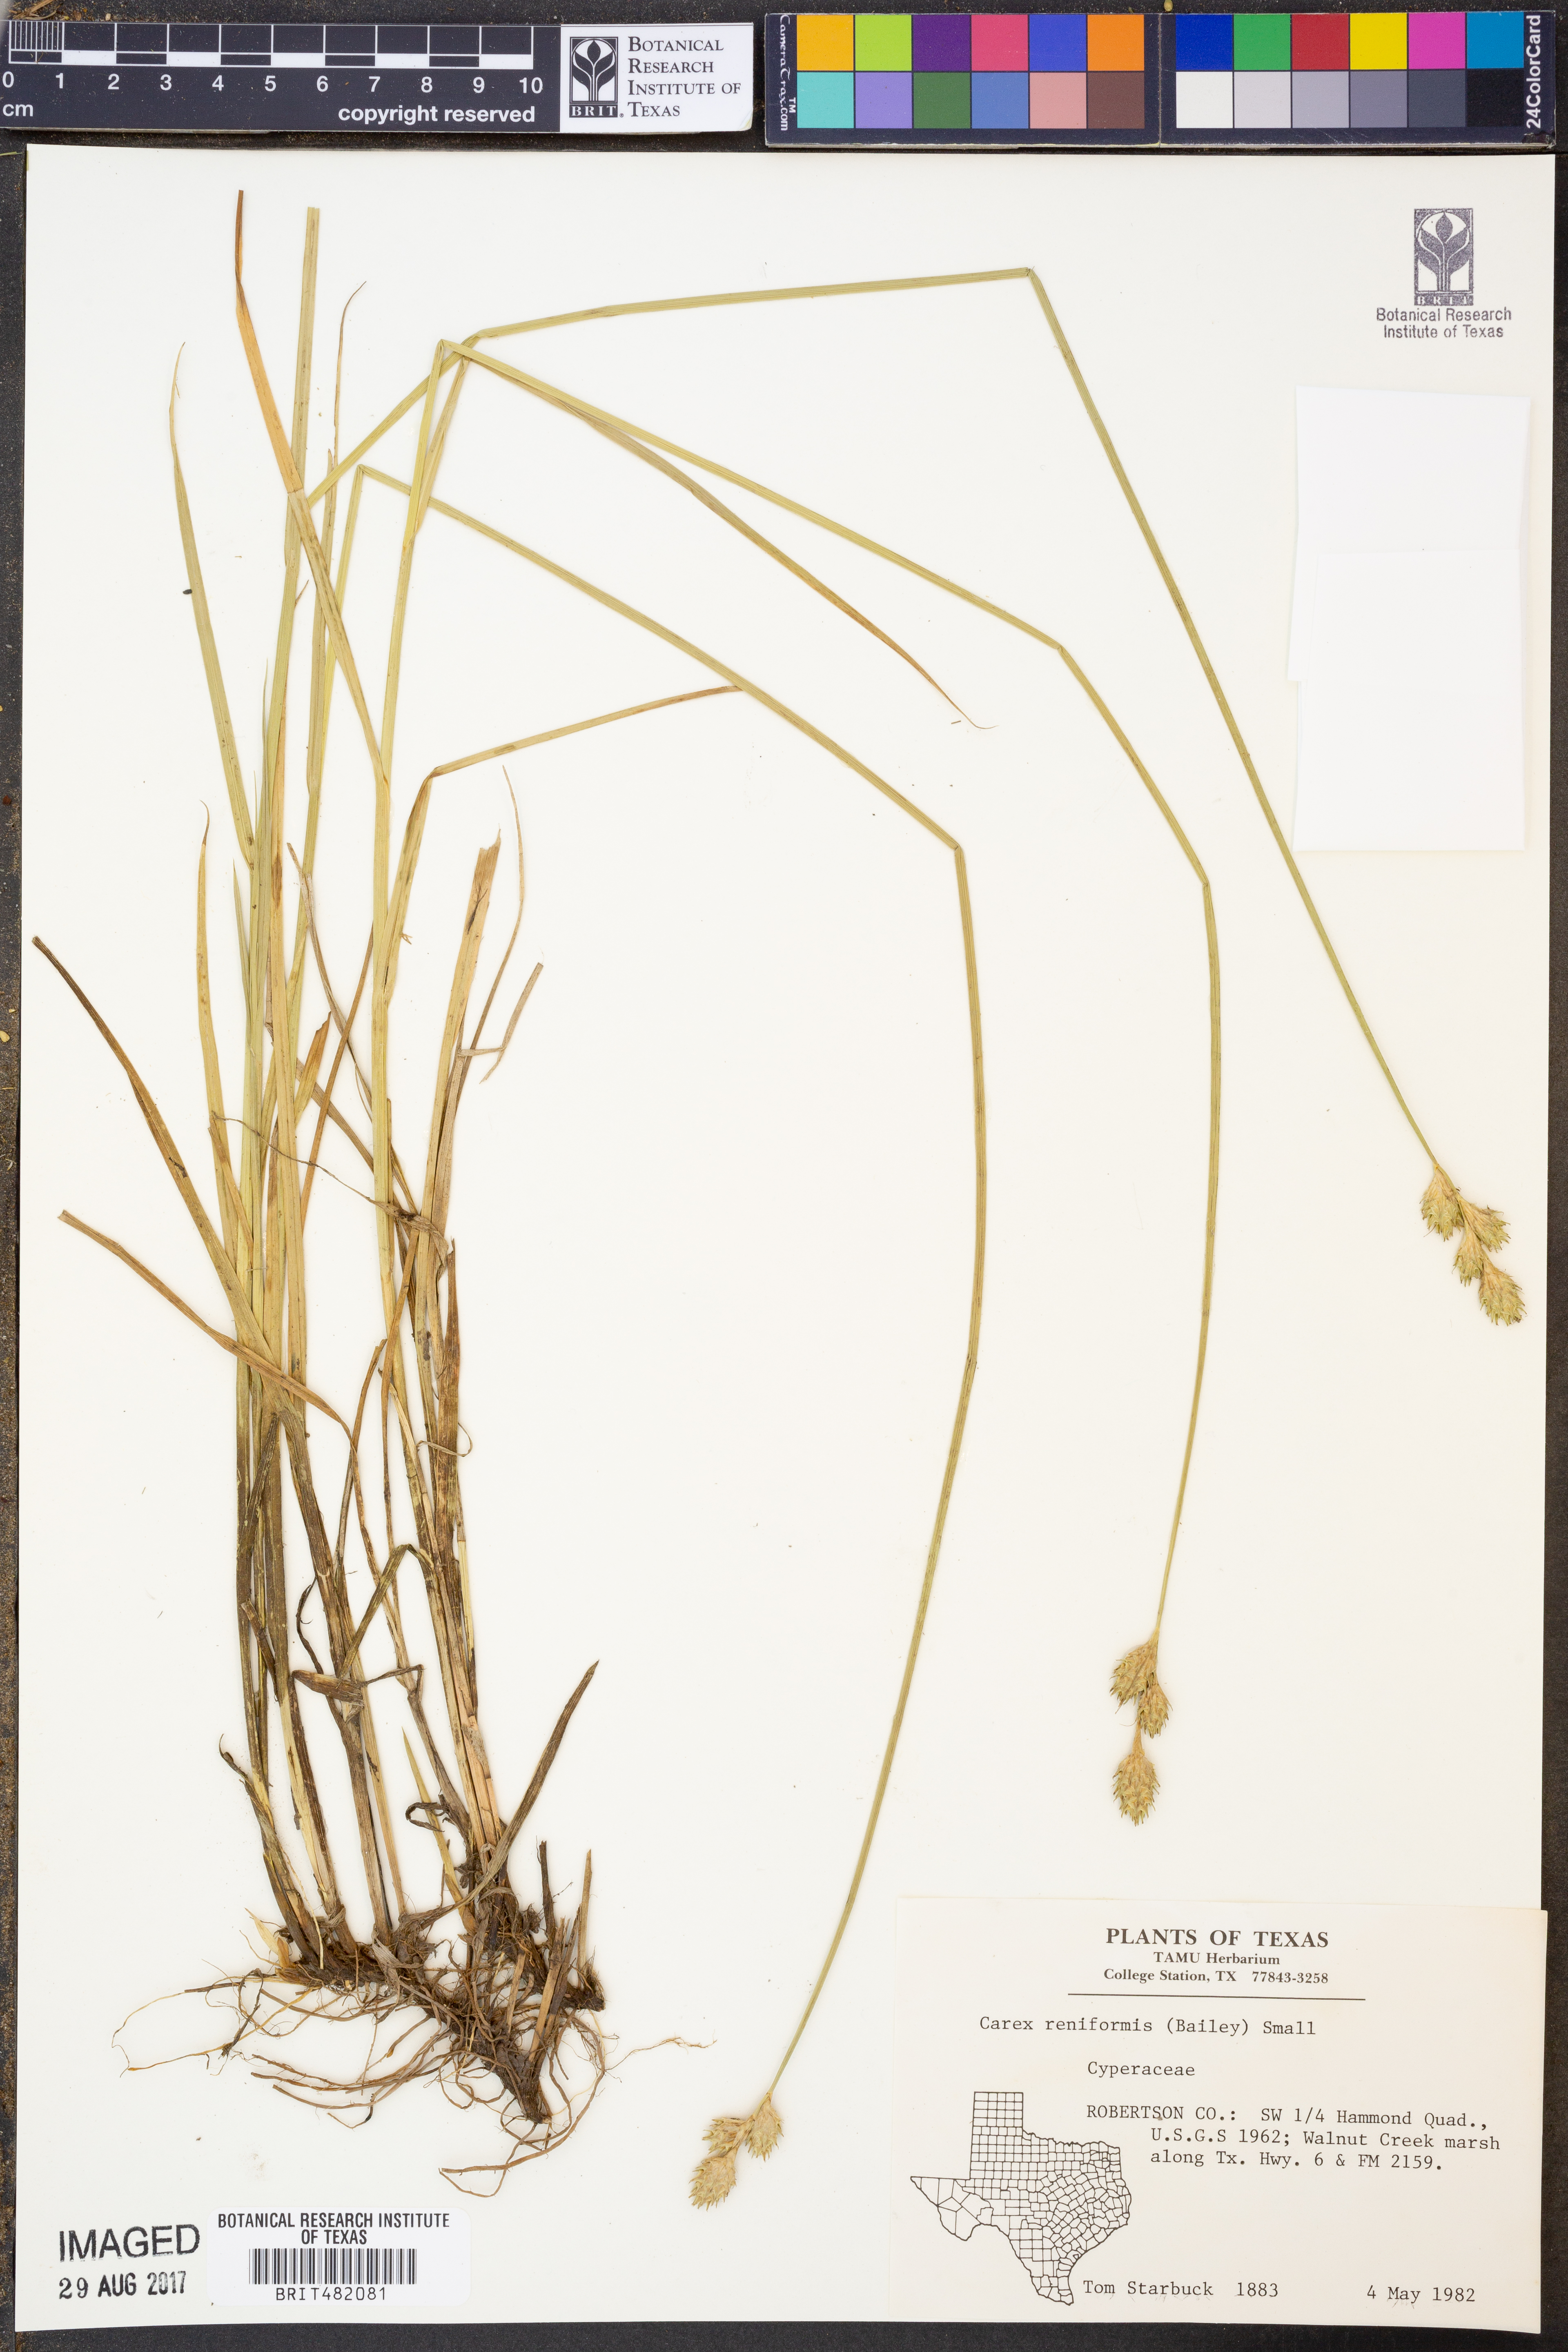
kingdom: Plantae
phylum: Tracheophyta
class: Liliopsida
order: Poales
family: Cyperaceae
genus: Carex
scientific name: Carex reniformis
